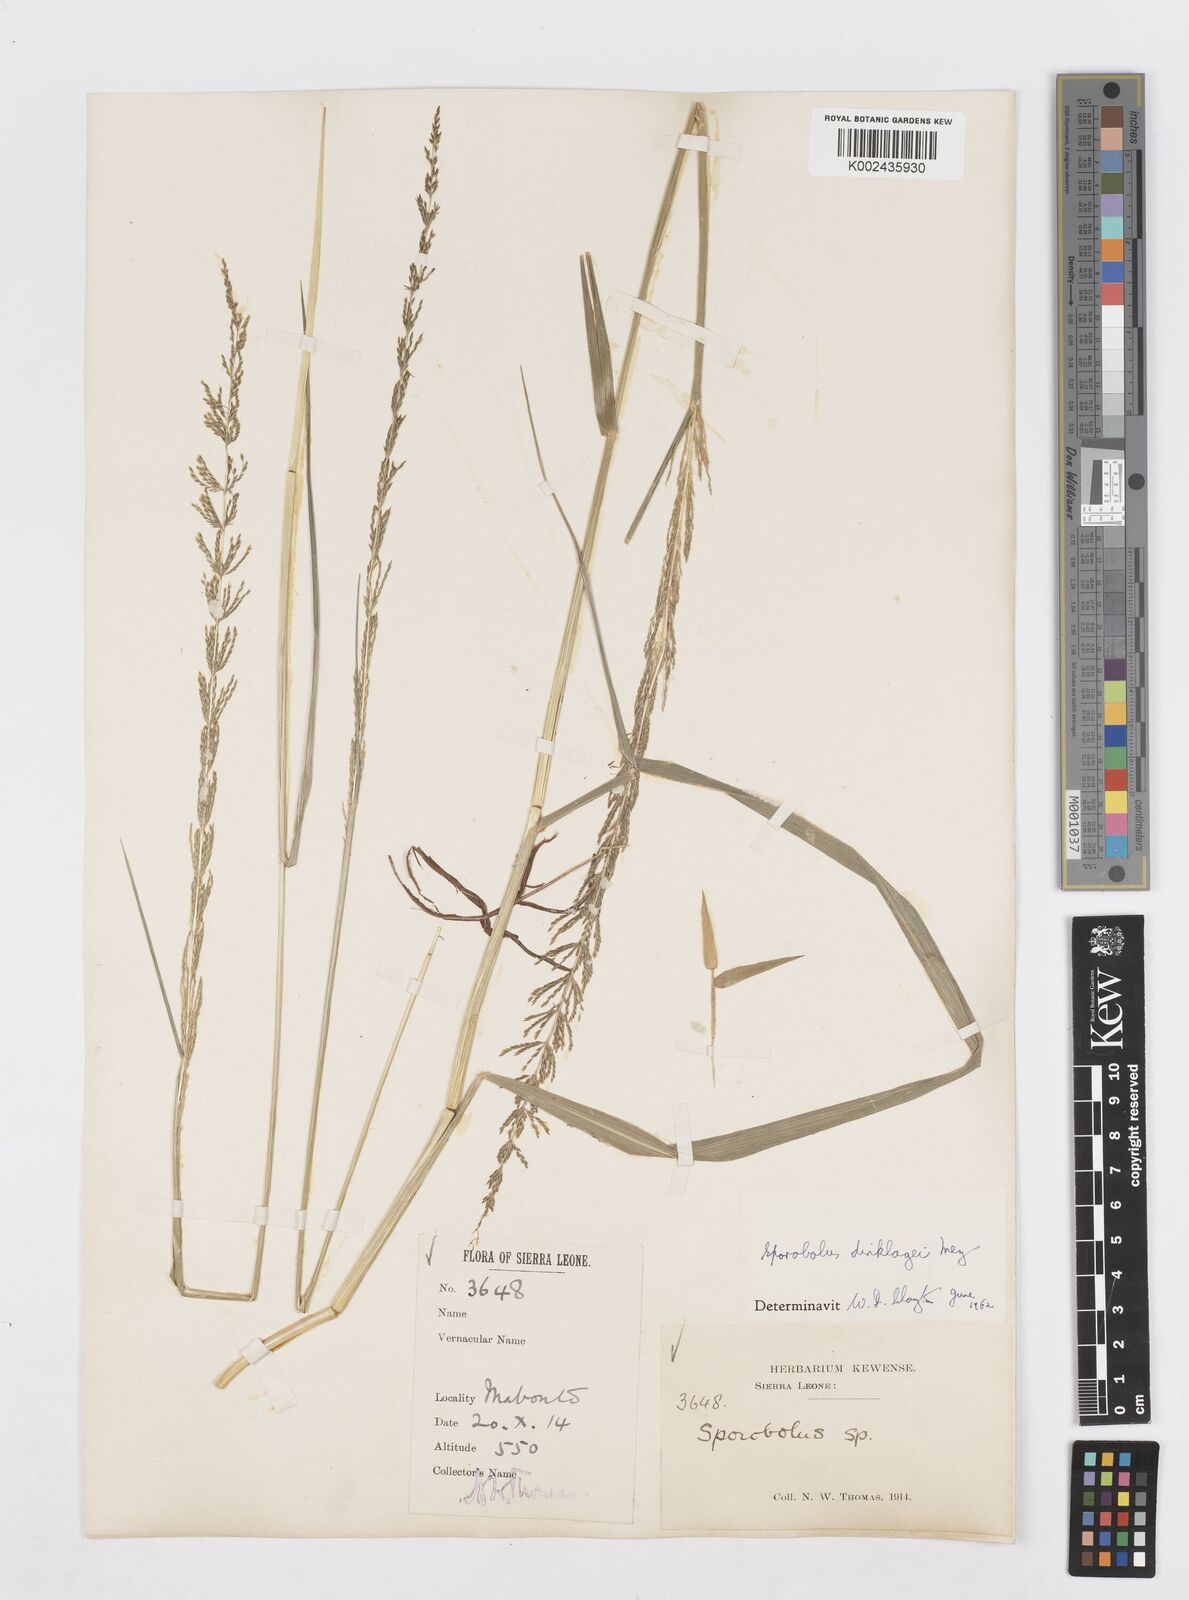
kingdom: Plantae
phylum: Tracheophyta
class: Liliopsida
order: Poales
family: Poaceae
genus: Sporobolus
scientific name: Sporobolus dinklagei
